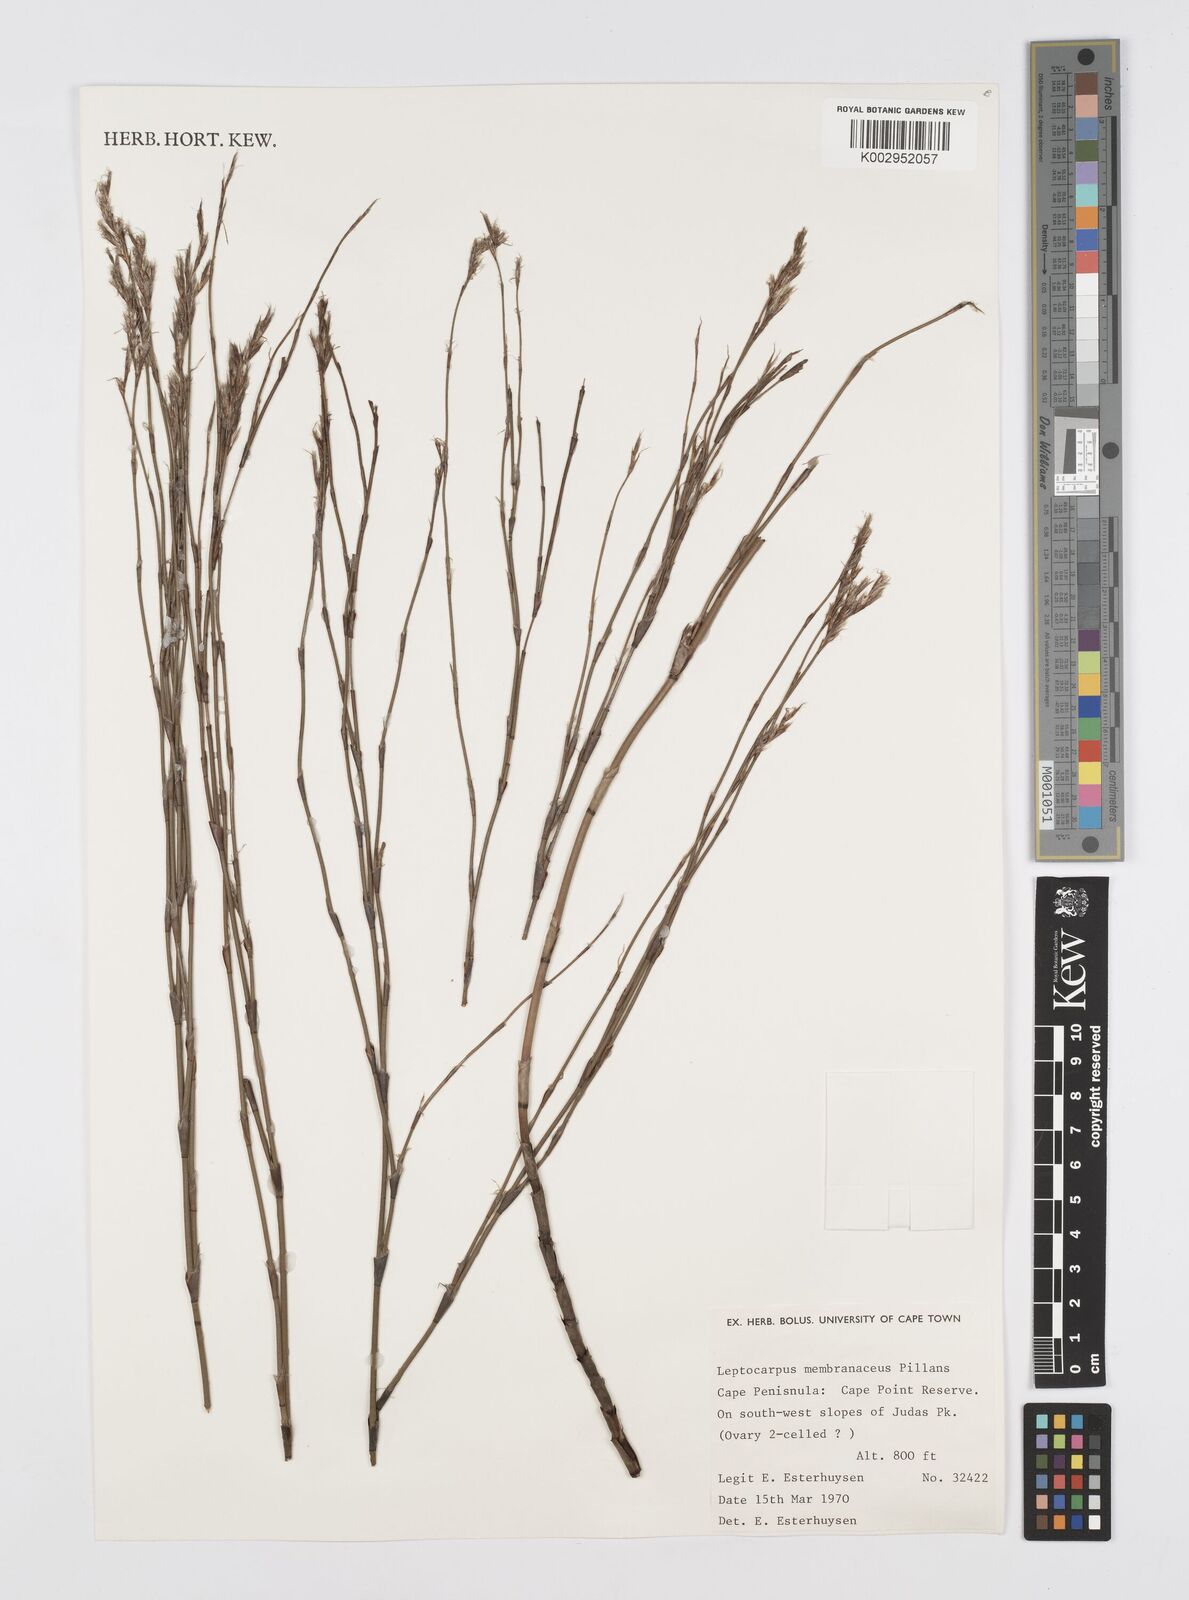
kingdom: Plantae
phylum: Tracheophyta
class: Liliopsida
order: Poales
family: Restionaceae
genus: Elegia
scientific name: Elegia intermedia
